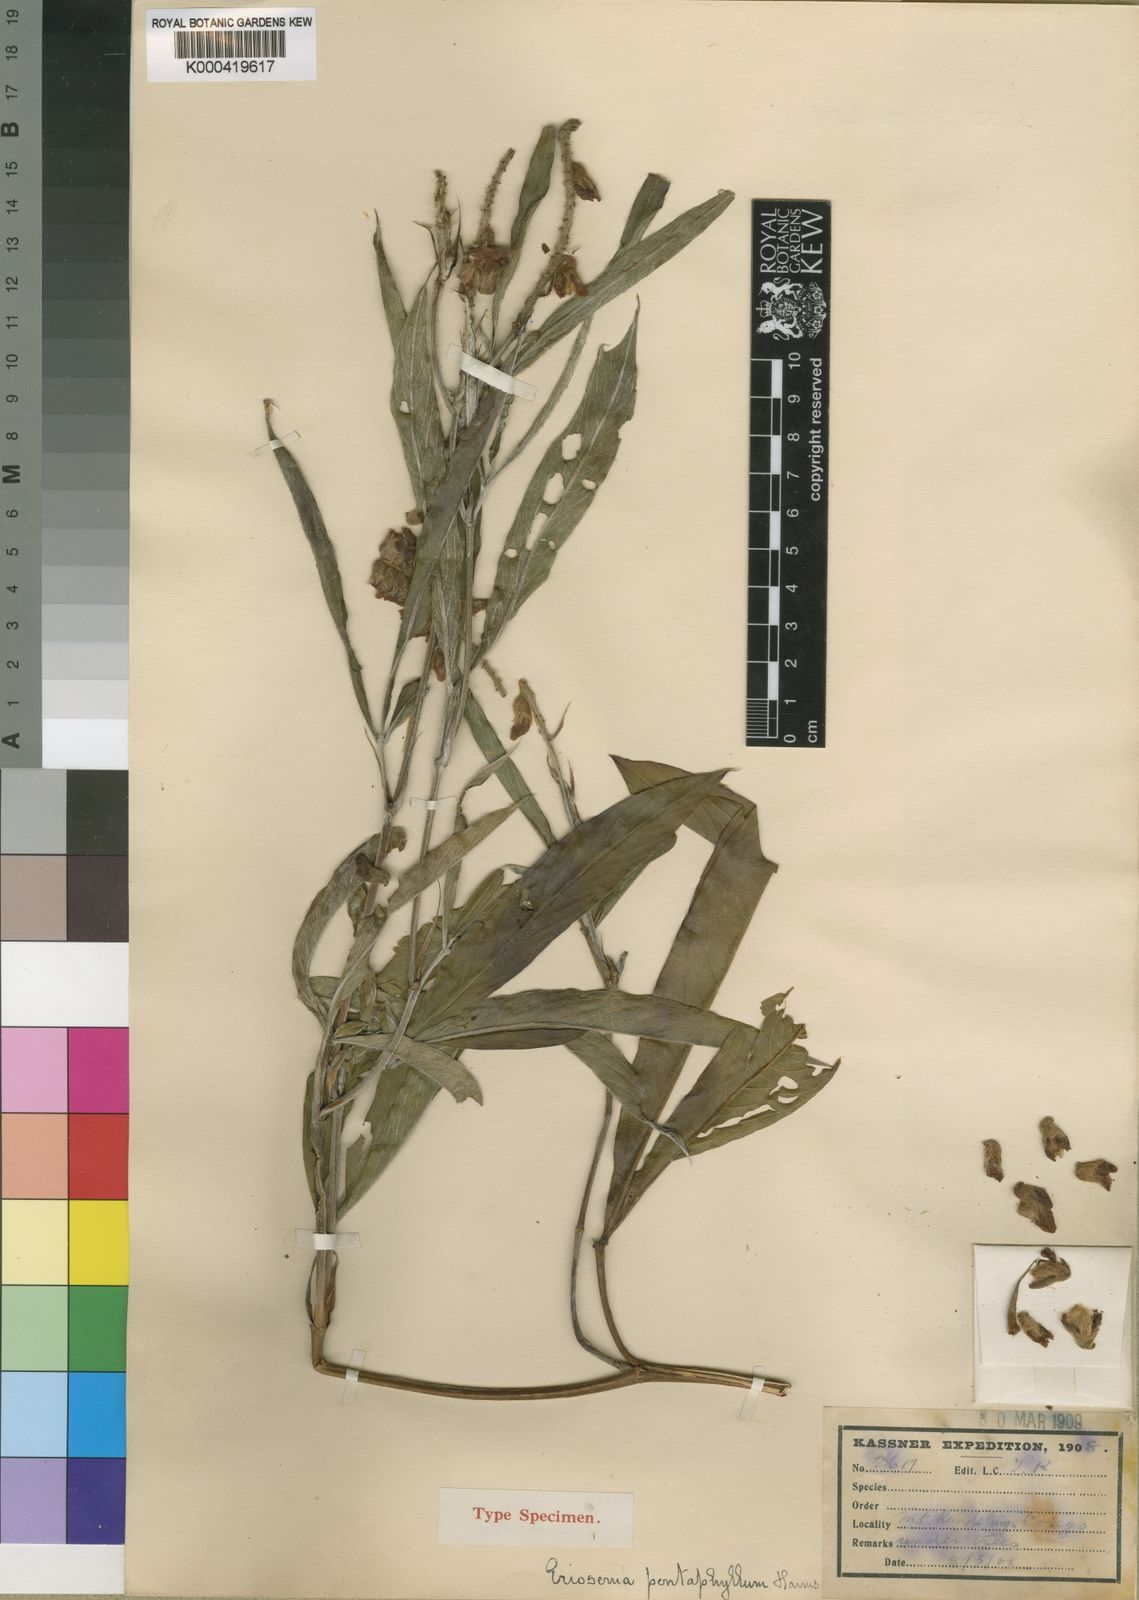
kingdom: Plantae
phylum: Tracheophyta
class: Magnoliopsida
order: Fabales
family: Fabaceae
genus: Eriosema
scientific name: Eriosema pentaphyllum
